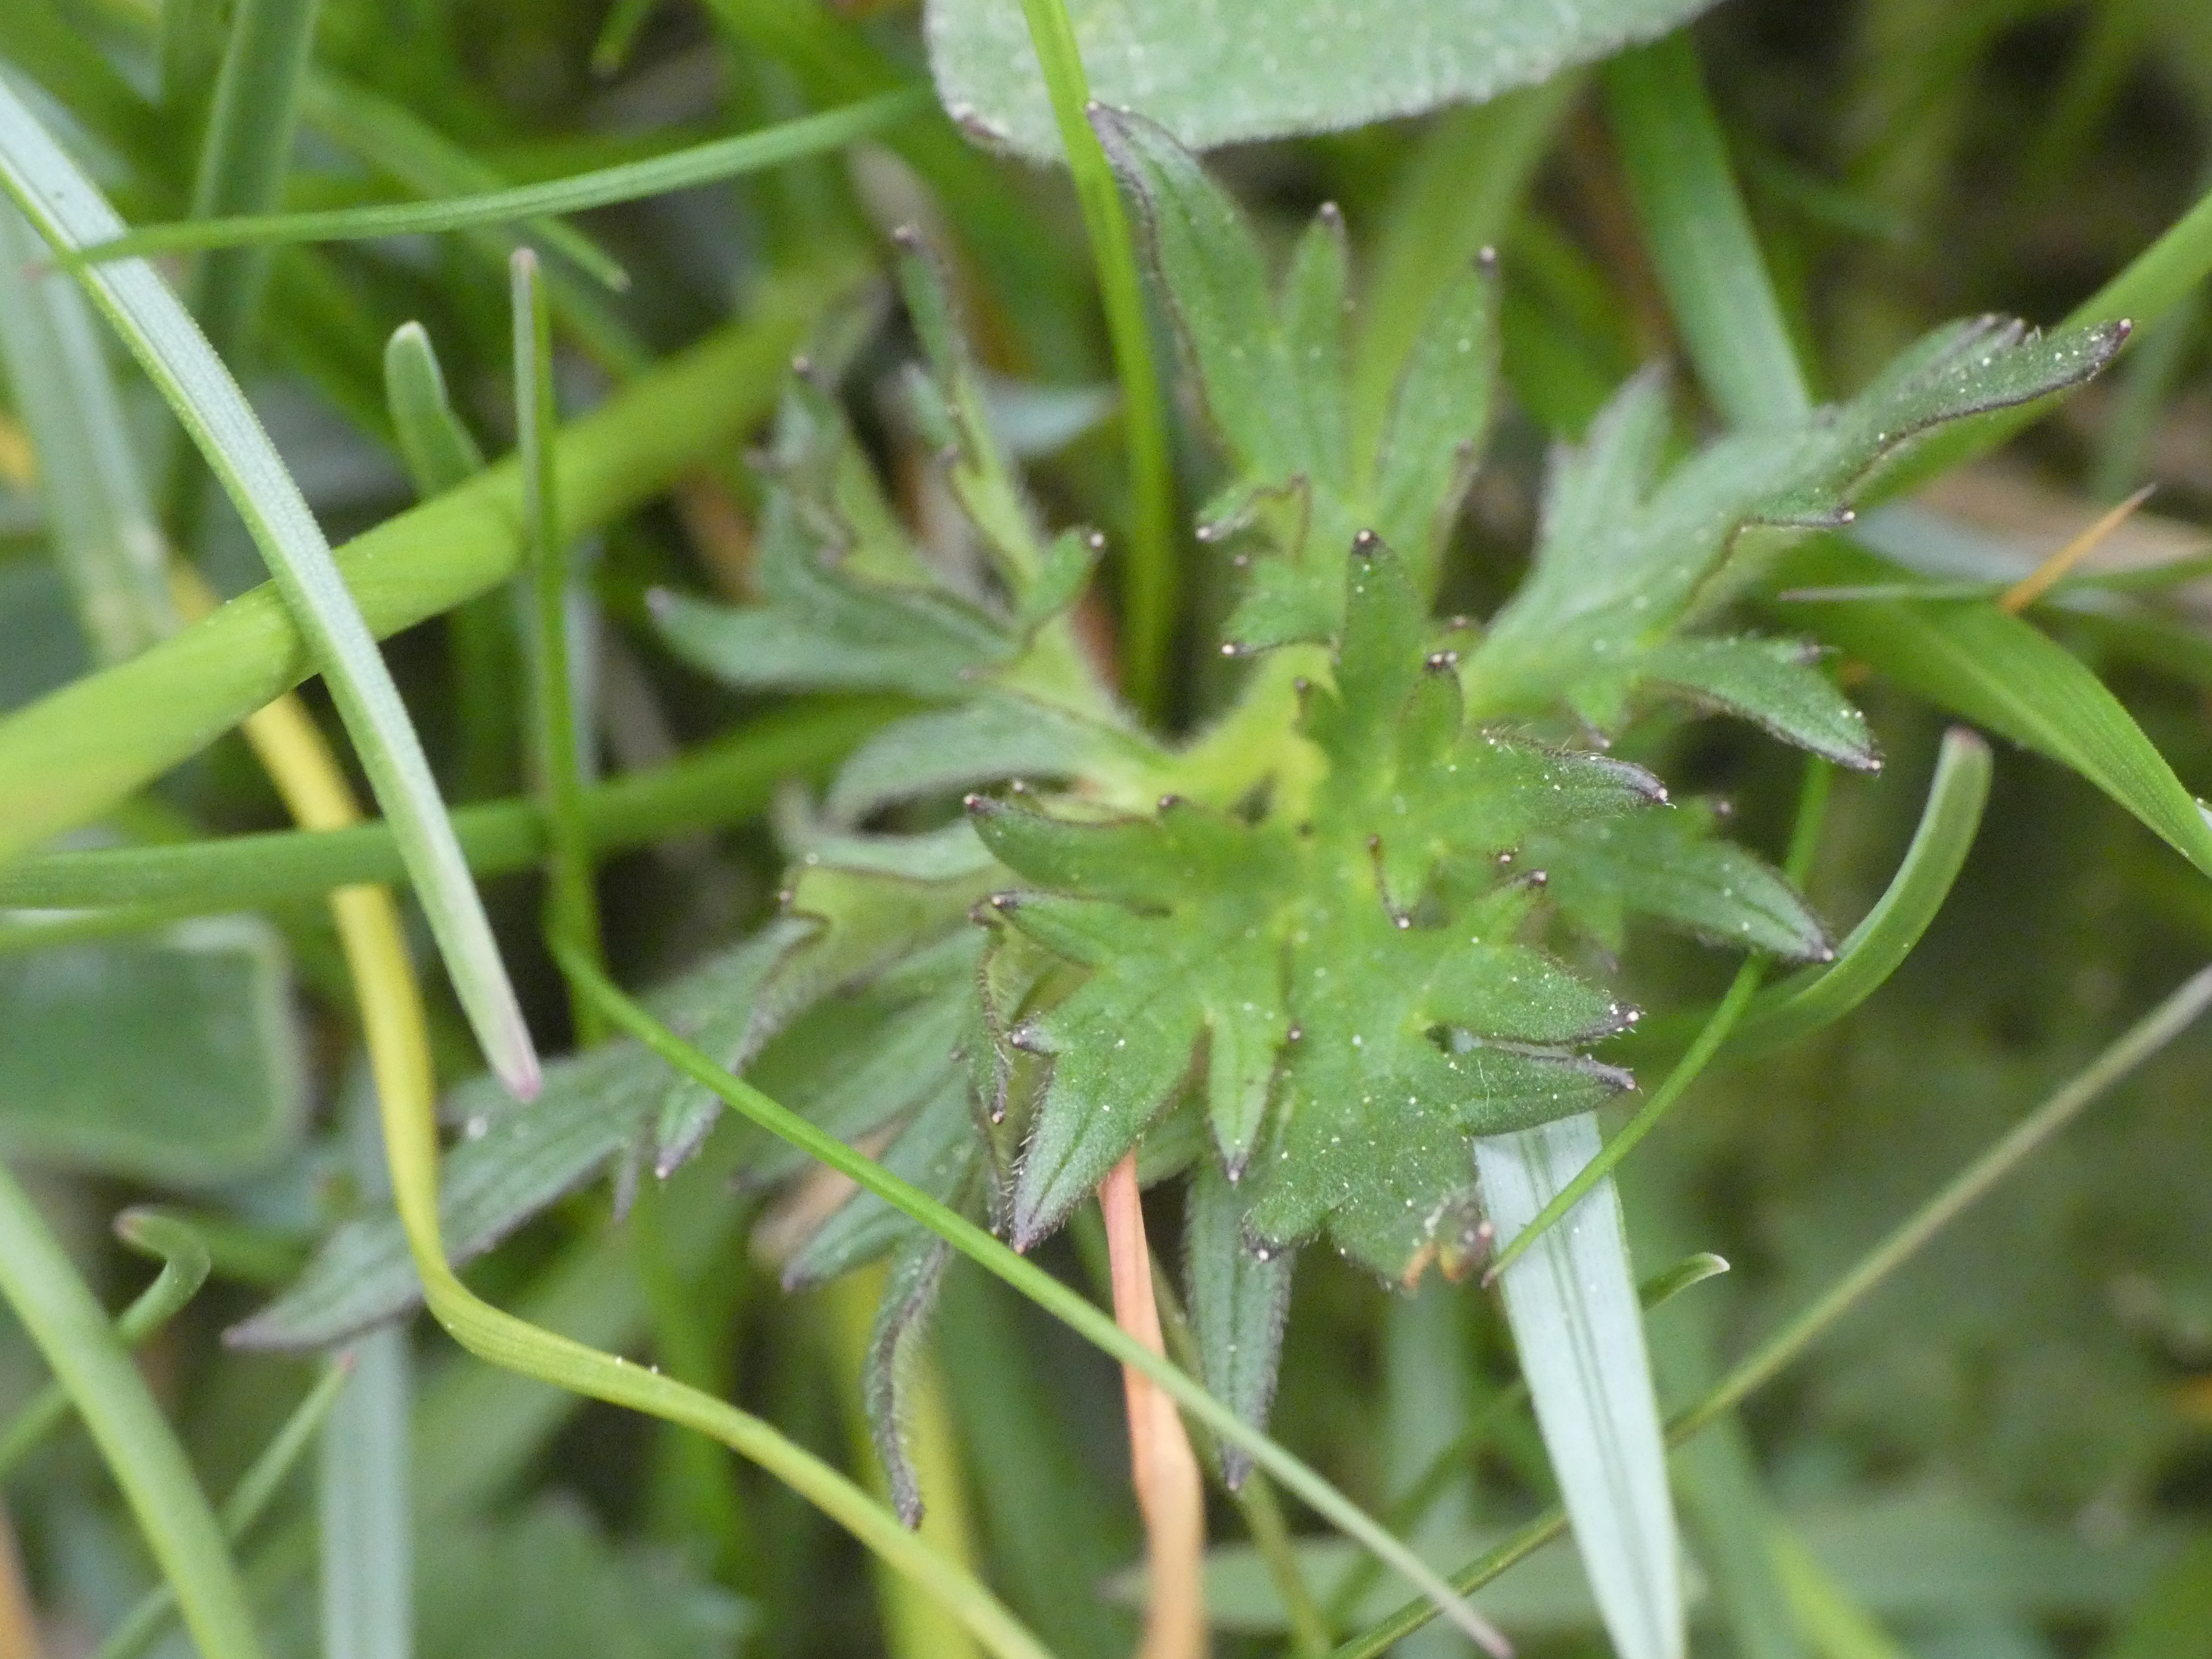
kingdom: Plantae
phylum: Tracheophyta
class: Magnoliopsida
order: Ranunculales
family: Ranunculaceae
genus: Ranunculus
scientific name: Ranunculus acris
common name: Bidende ranunkel
